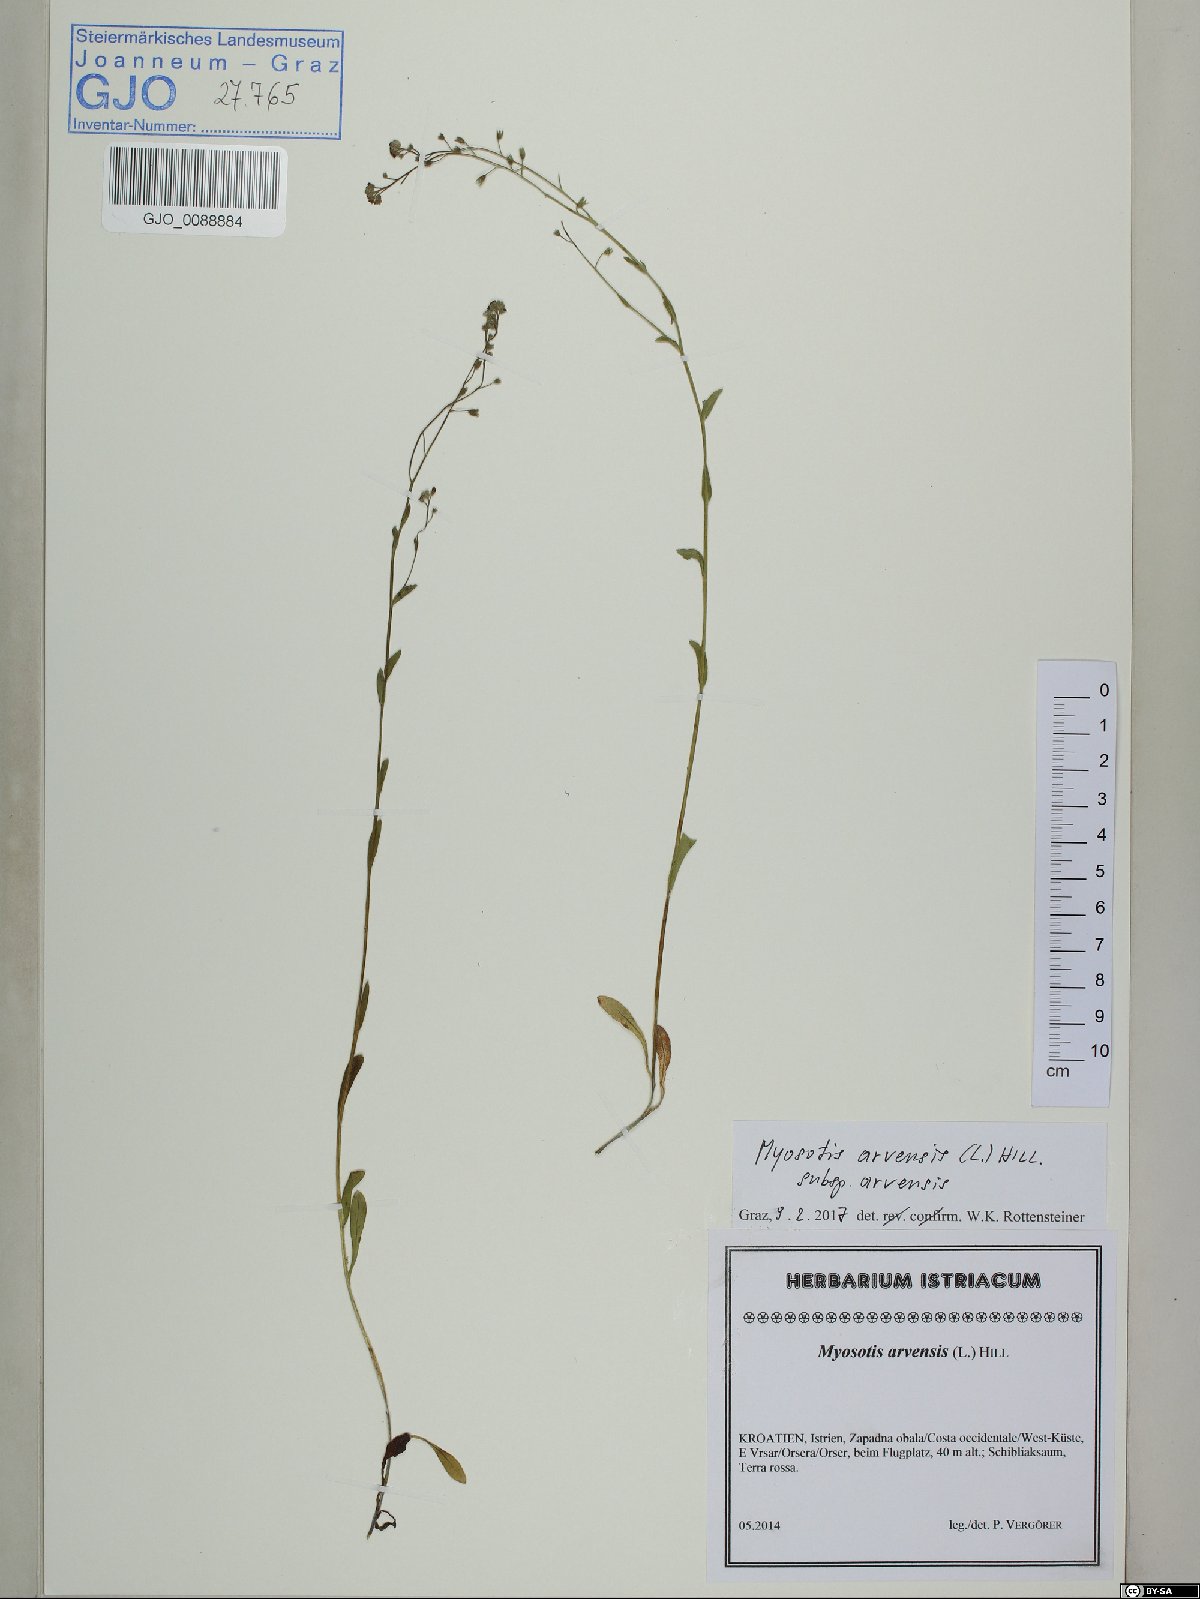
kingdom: Plantae
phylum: Tracheophyta
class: Magnoliopsida
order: Boraginales
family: Boraginaceae
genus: Myosotis
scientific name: Myosotis arvensis
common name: Field forget-me-not
